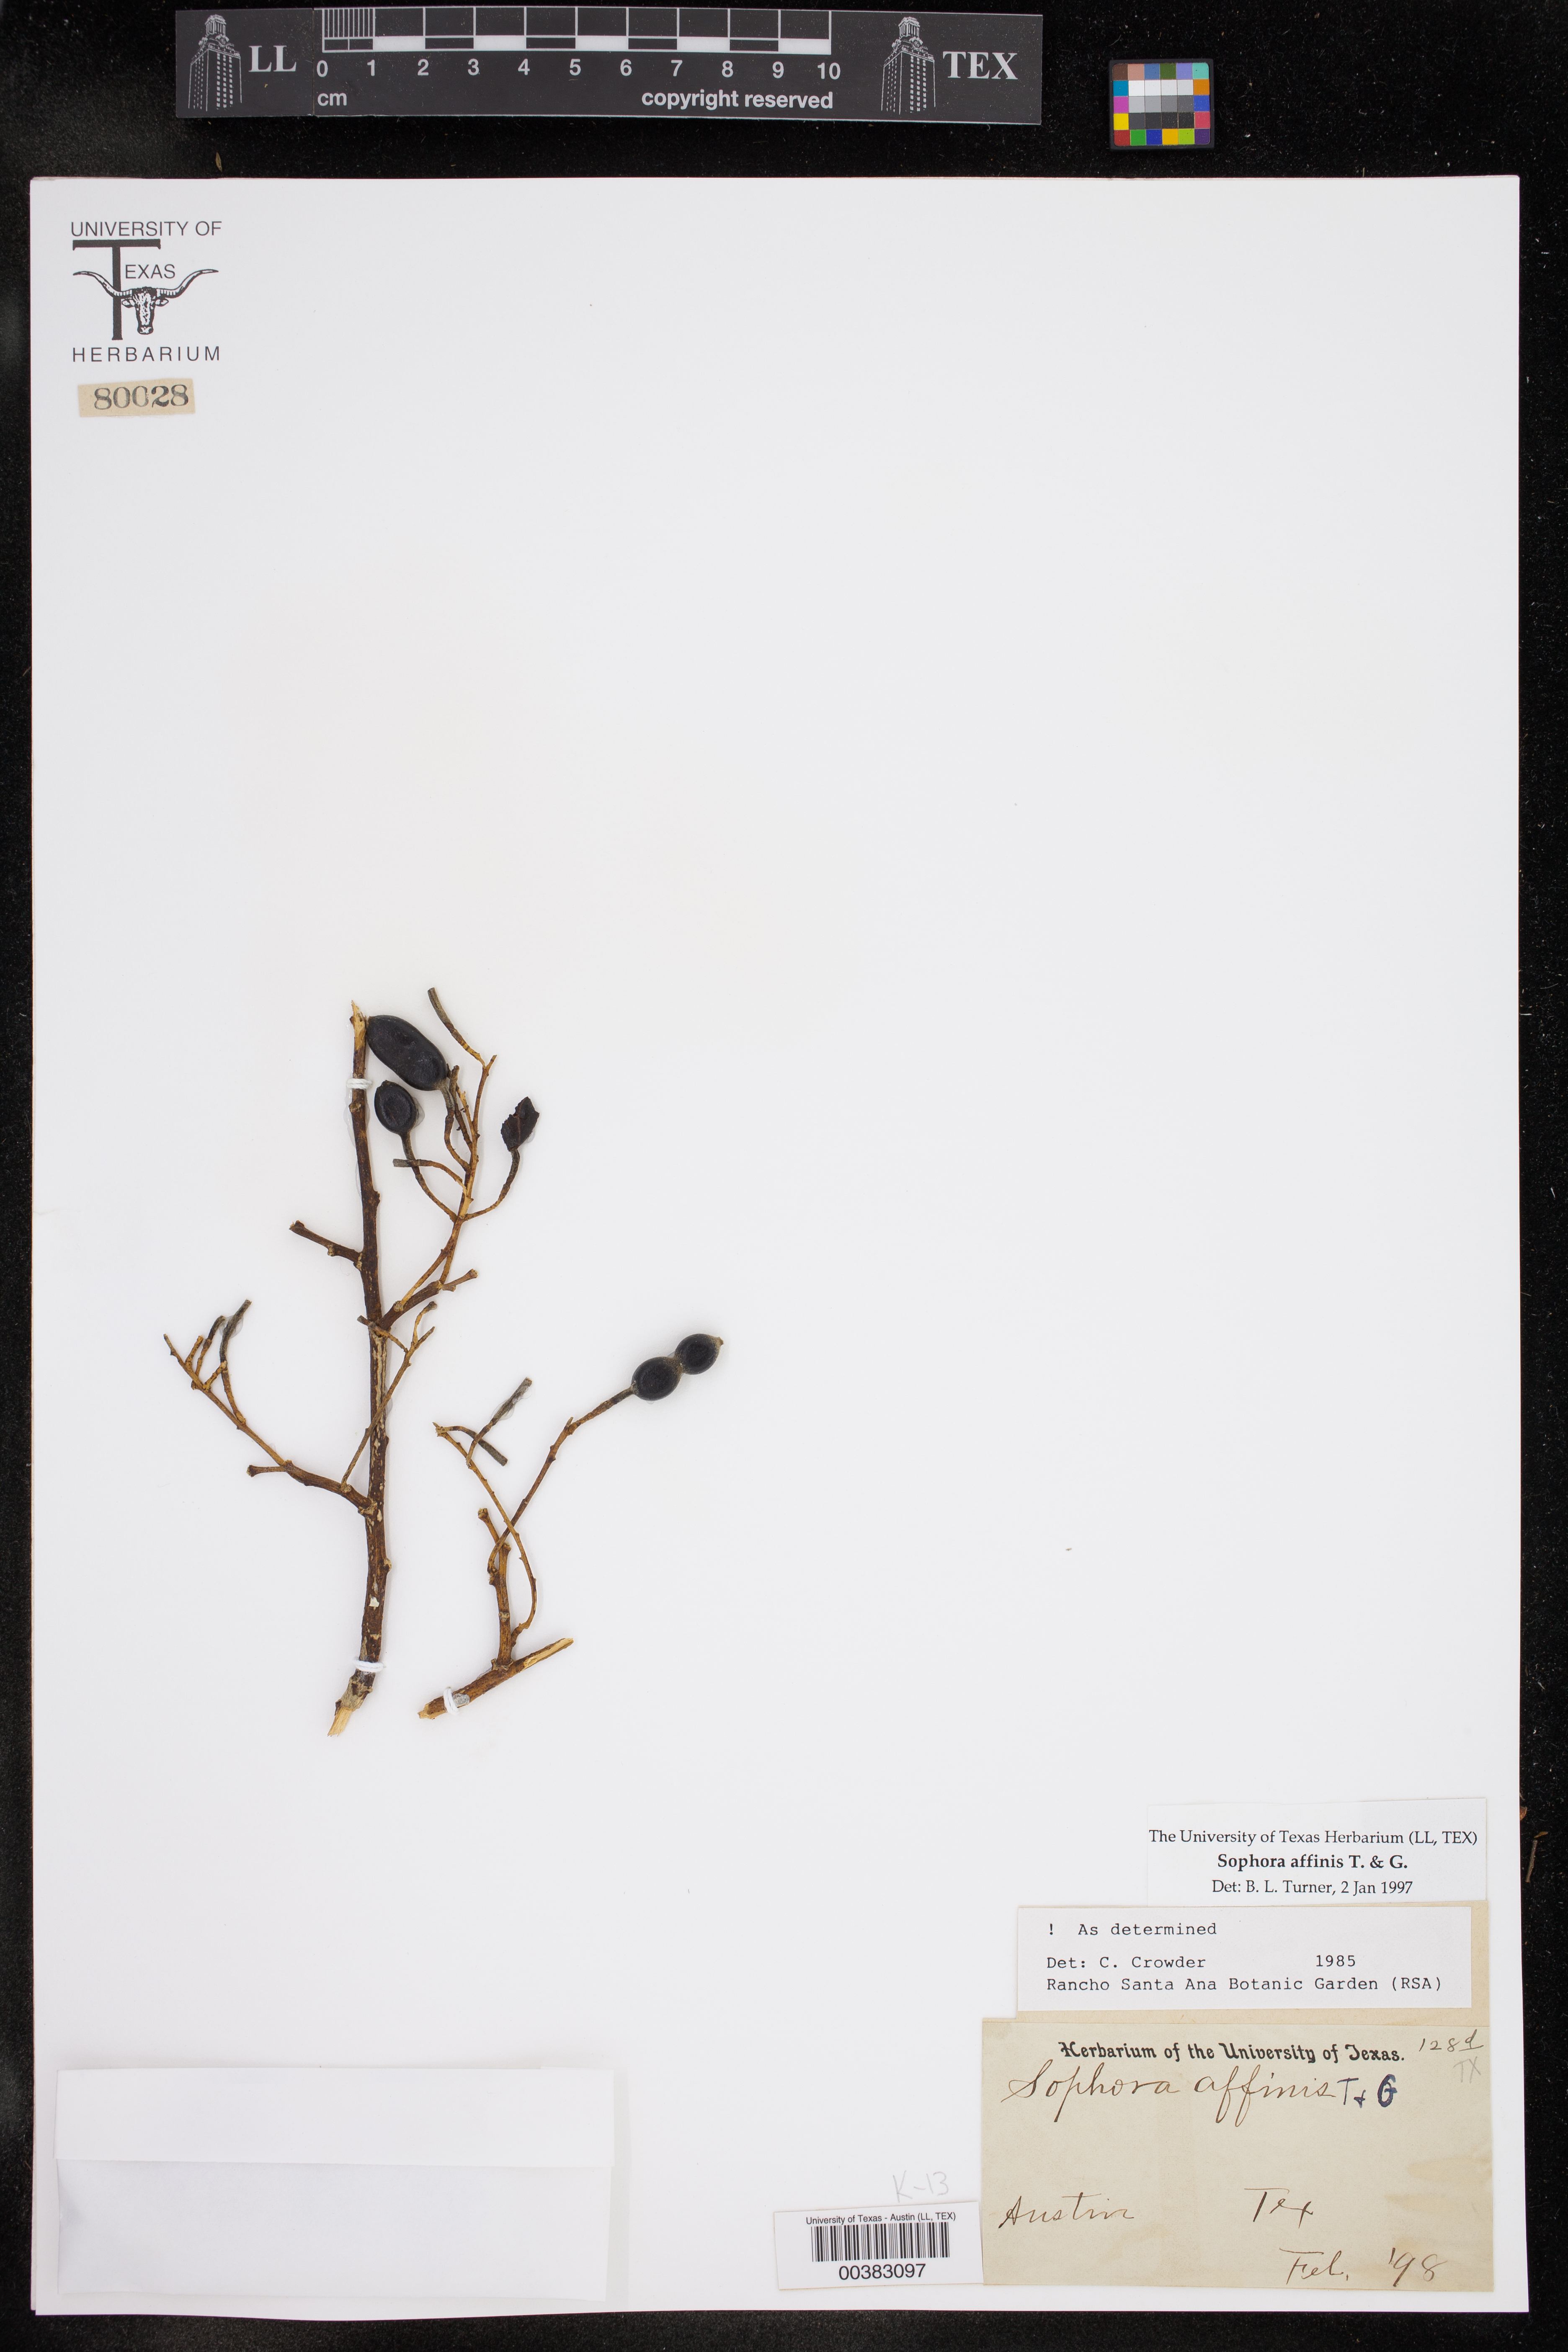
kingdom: Plantae
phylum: Tracheophyta
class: Magnoliopsida
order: Fabales
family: Fabaceae
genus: Styphnolobium
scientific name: Styphnolobium affine
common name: Texas sophora
